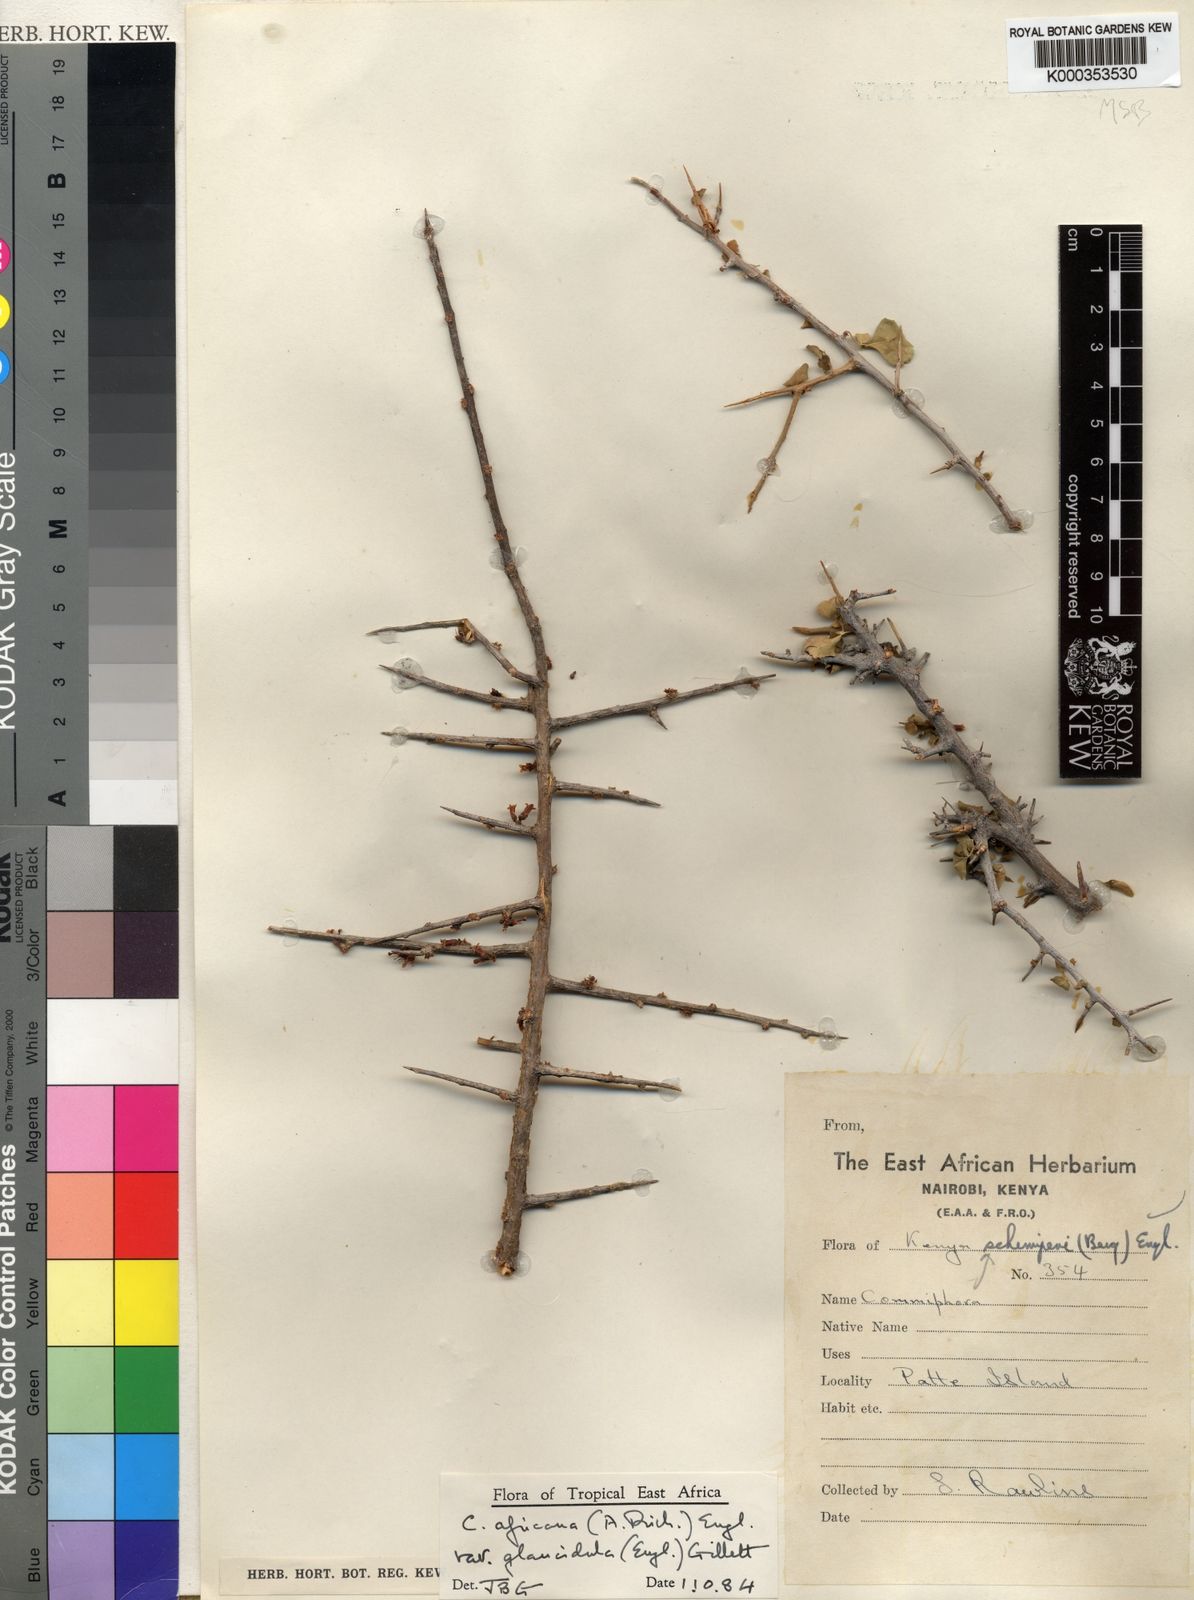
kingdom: Plantae
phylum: Tracheophyta
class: Magnoliopsida
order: Sapindales
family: Burseraceae
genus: Commiphora
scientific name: Commiphora africana
